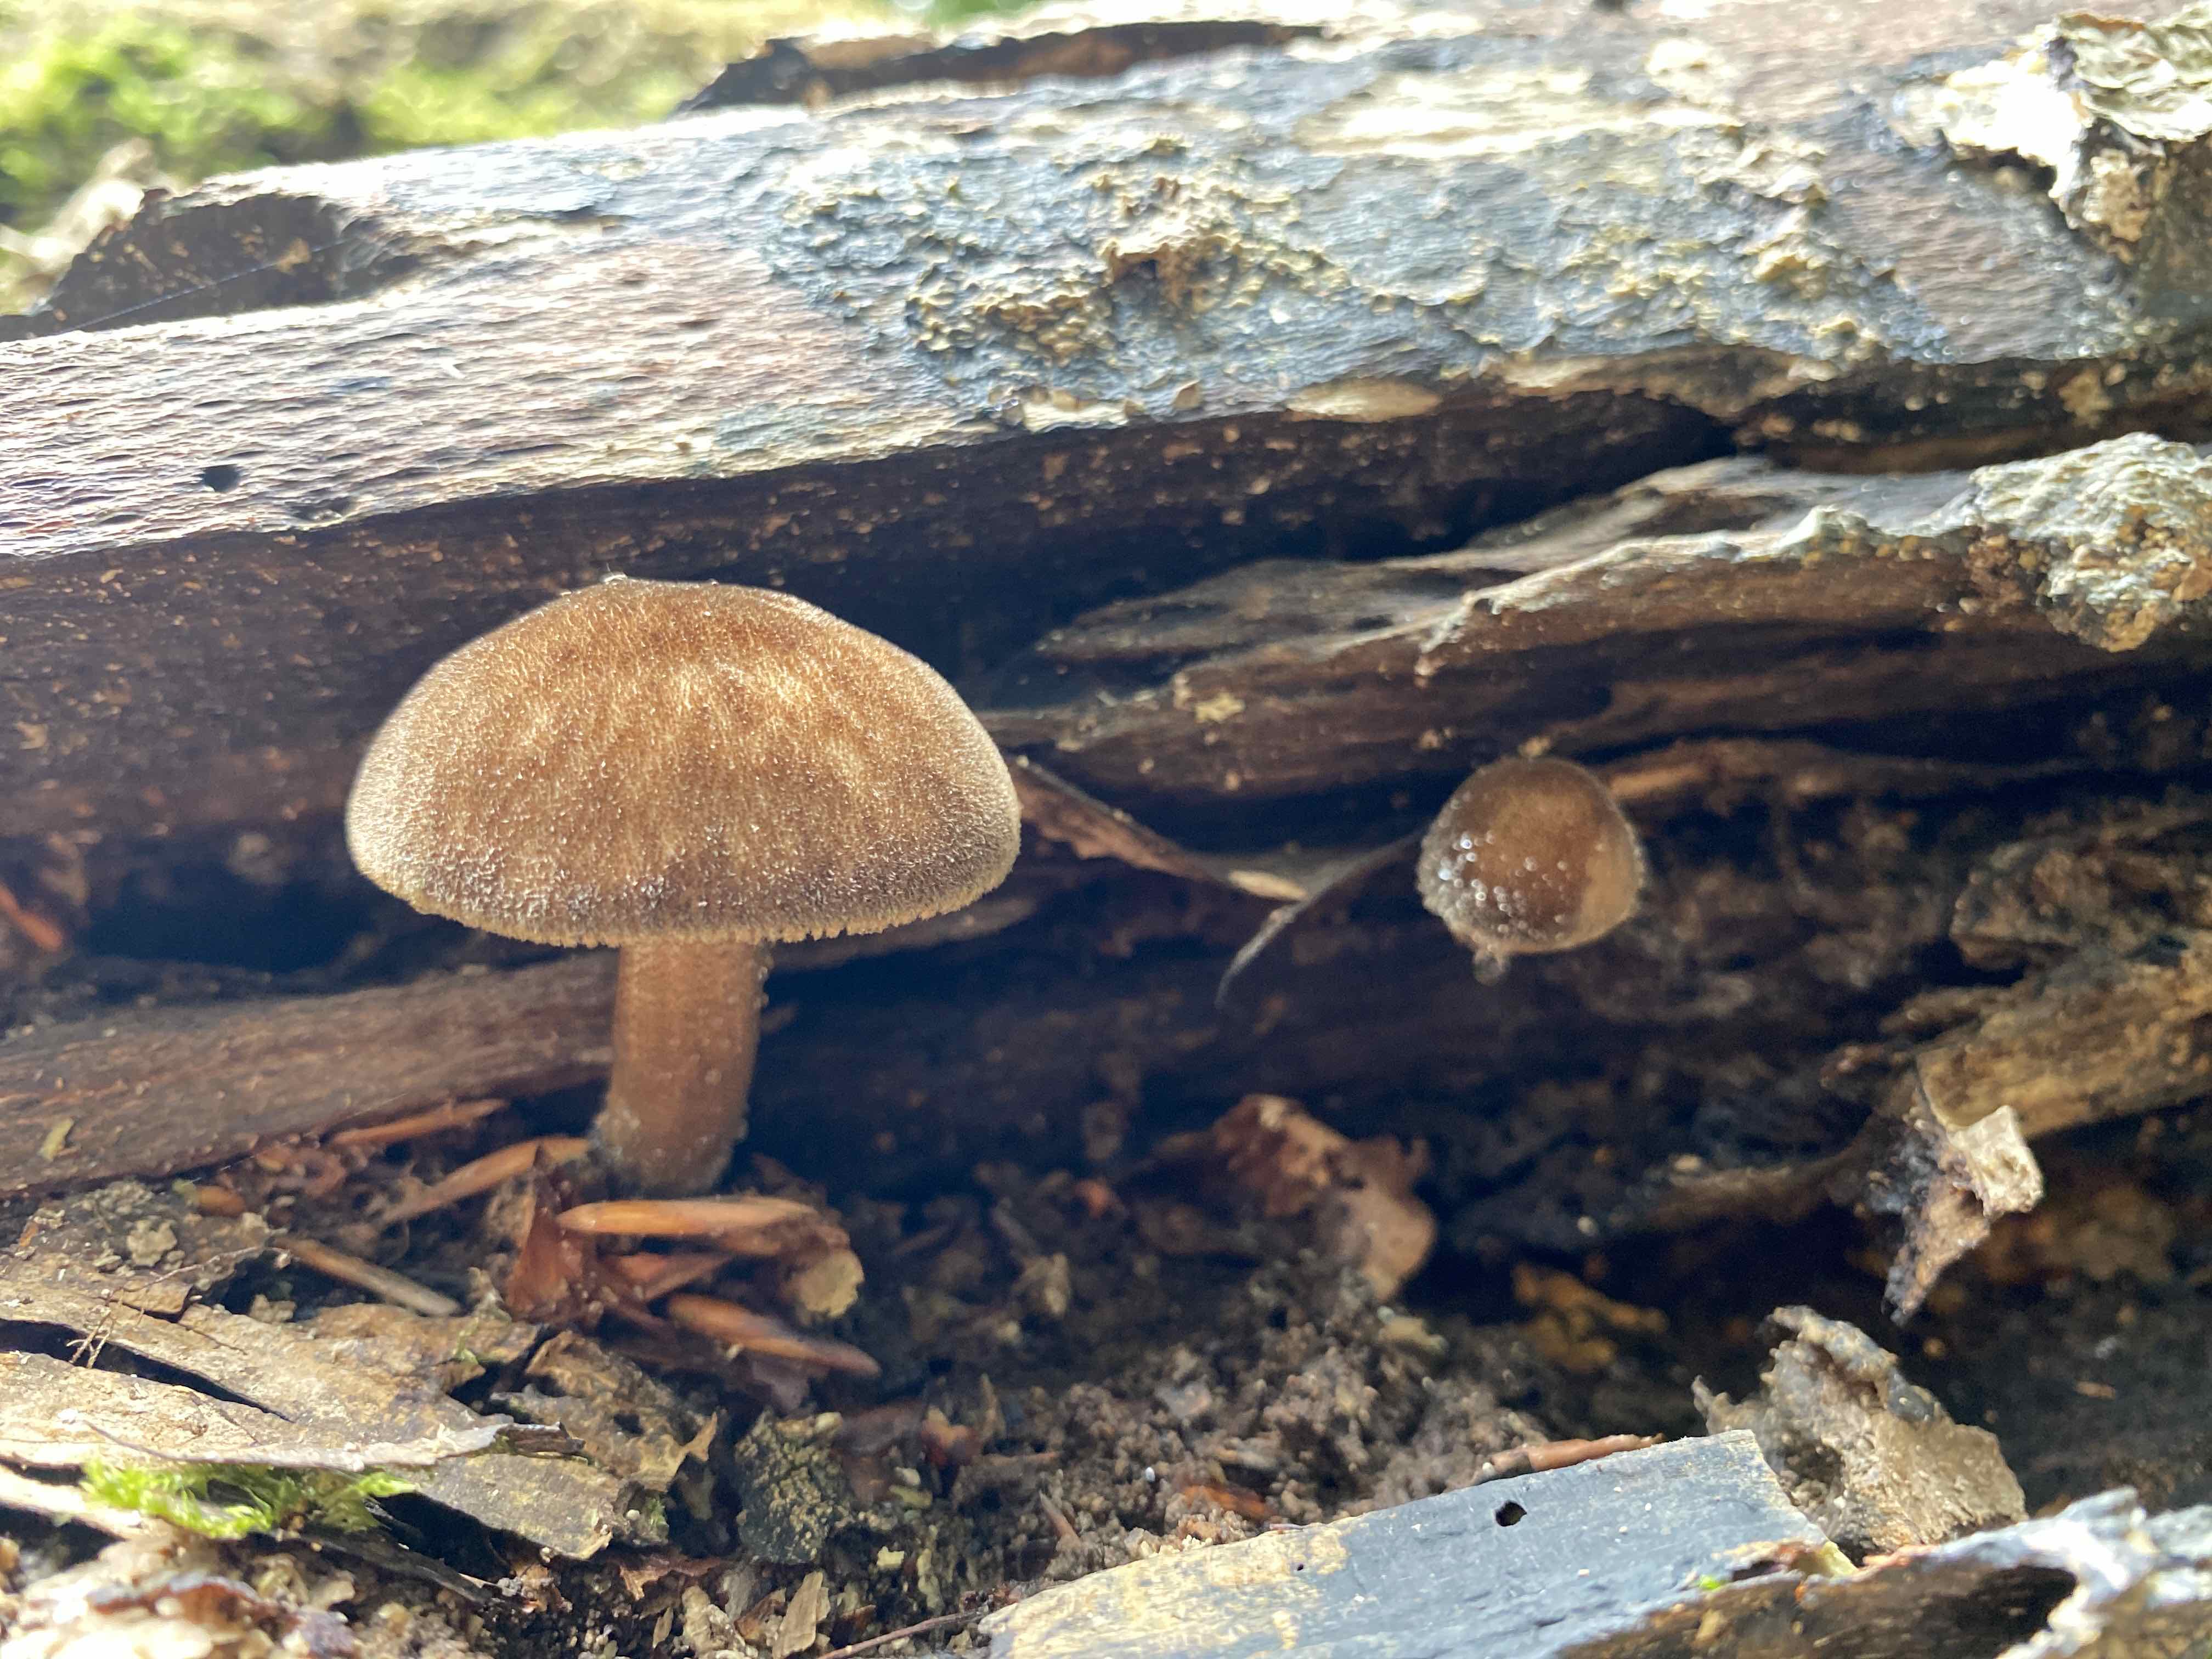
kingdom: Fungi
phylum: Basidiomycota
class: Agaricomycetes
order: Agaricales
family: Pluteaceae
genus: Pluteus
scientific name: Pluteus umbrosus
